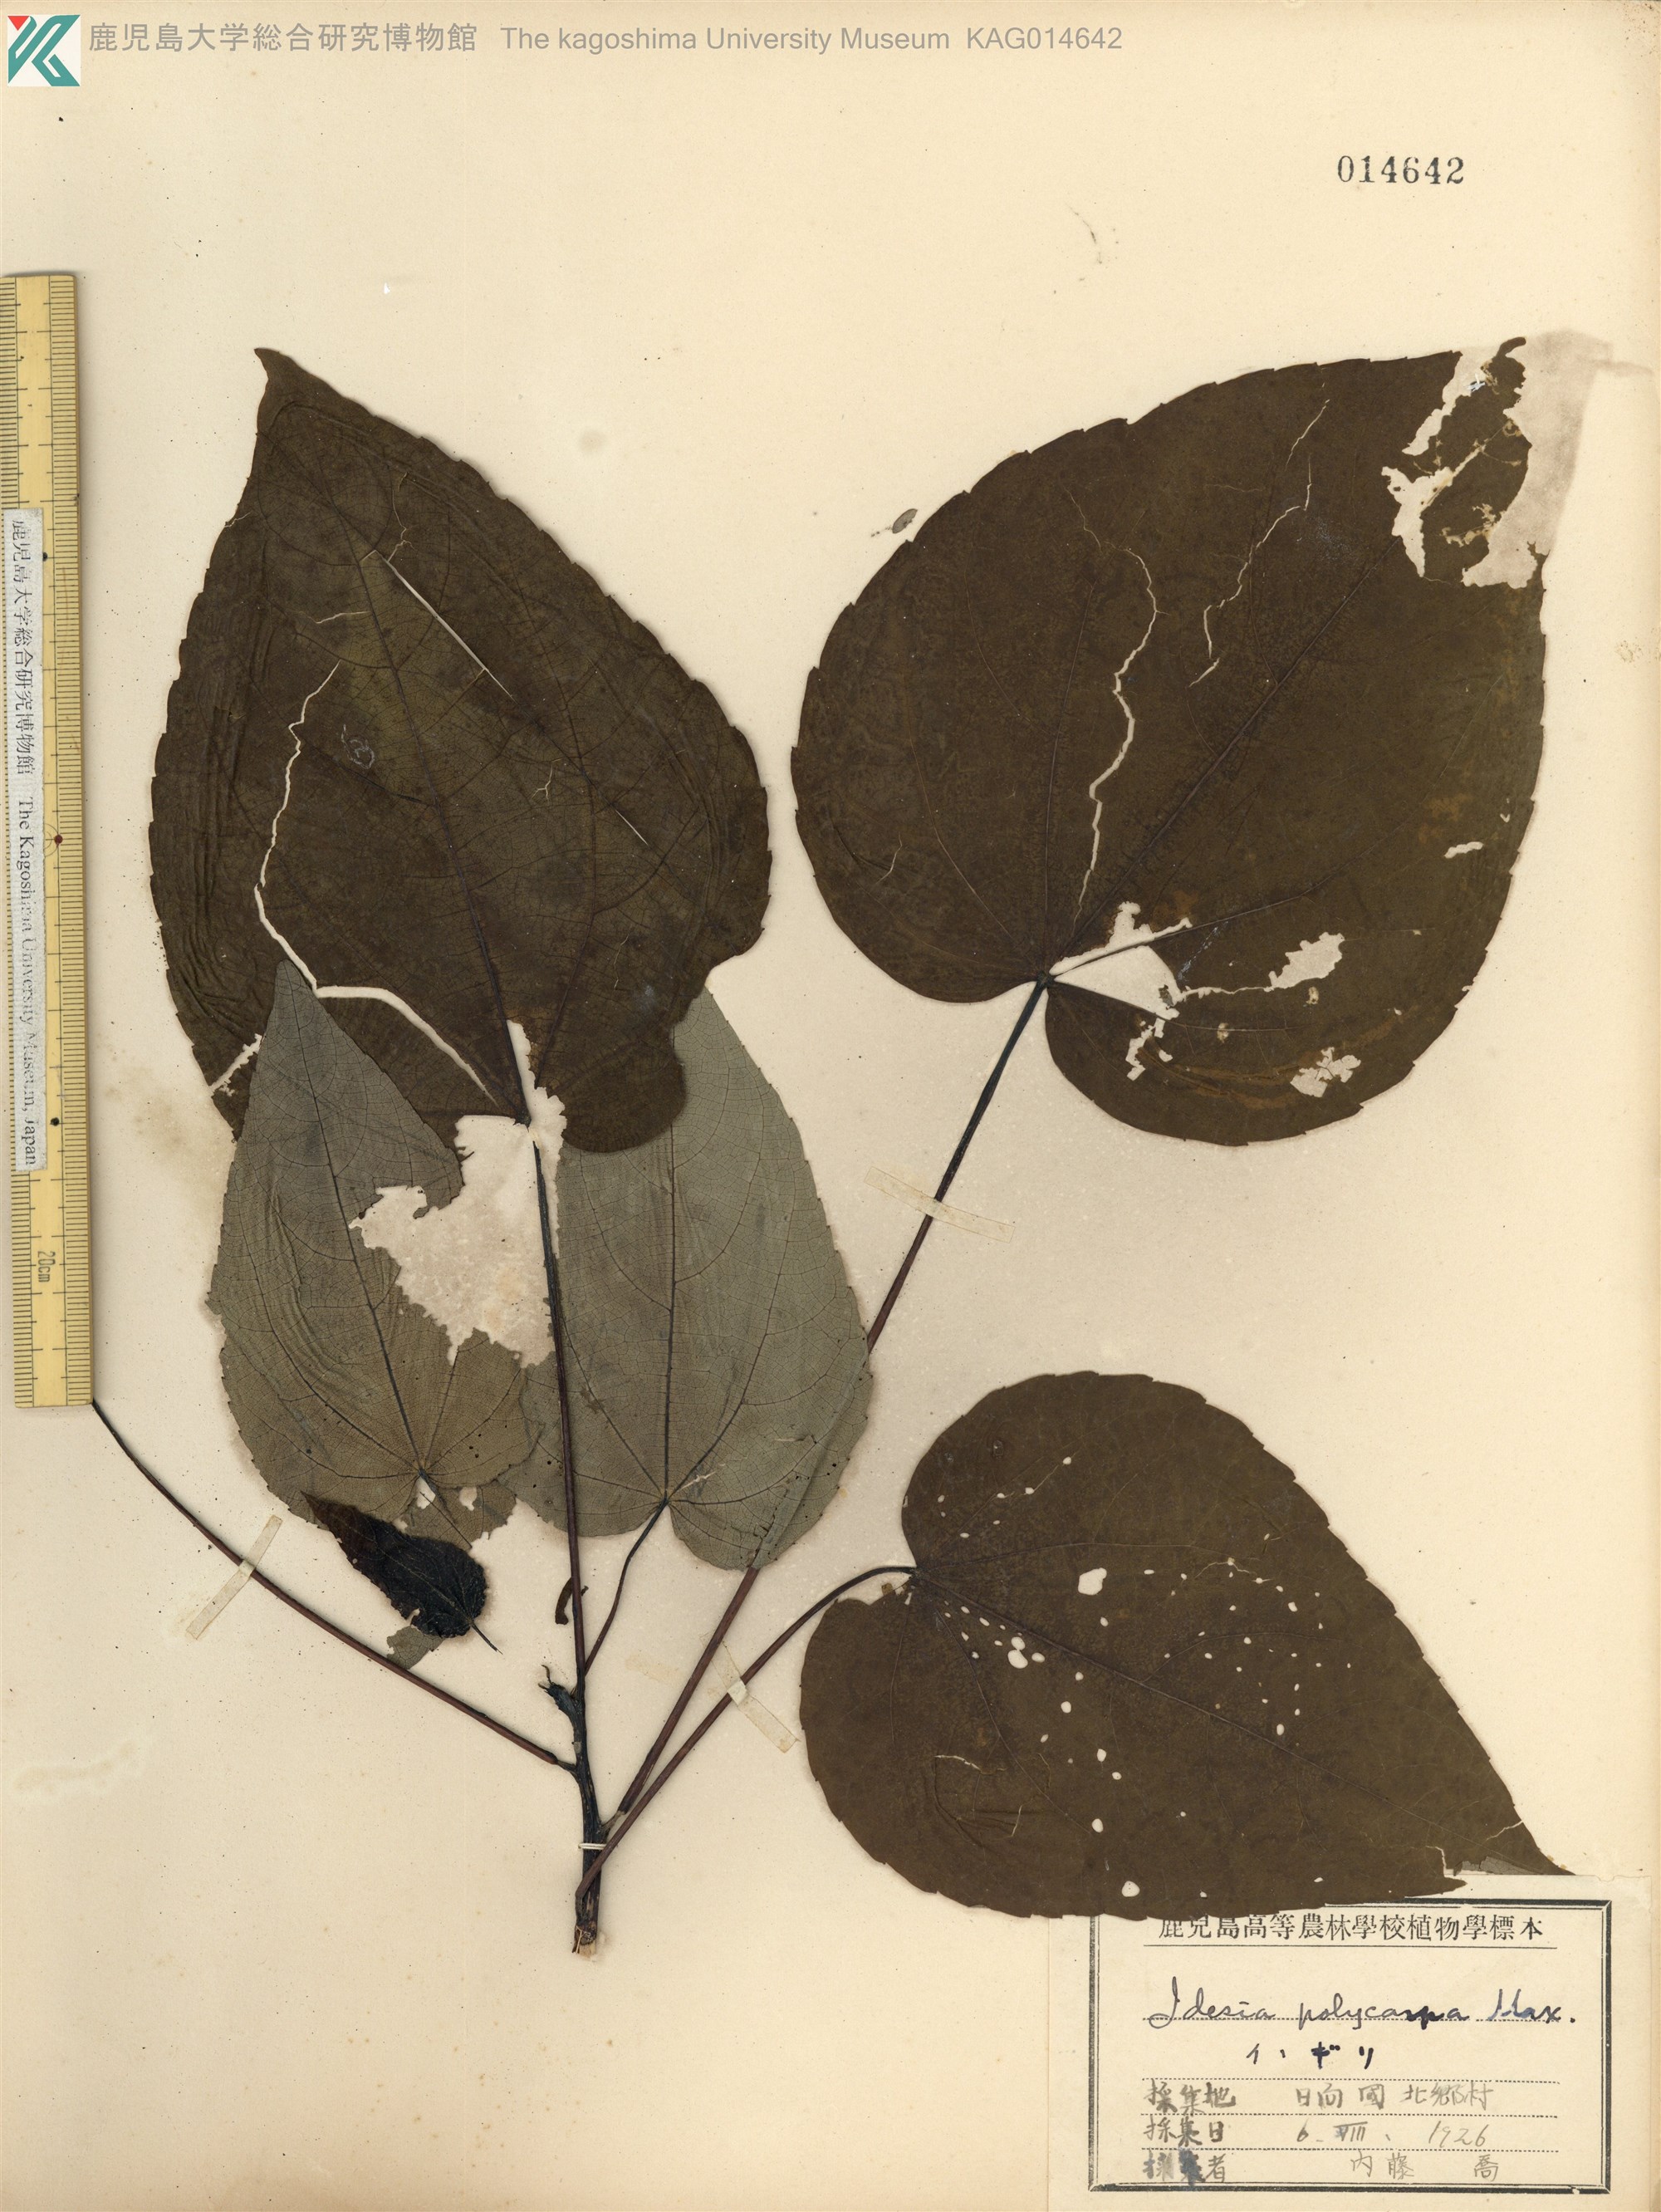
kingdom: Plantae
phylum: Tracheophyta
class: Magnoliopsida
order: Malpighiales
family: Salicaceae
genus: Idesia
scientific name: Idesia polycarpa
